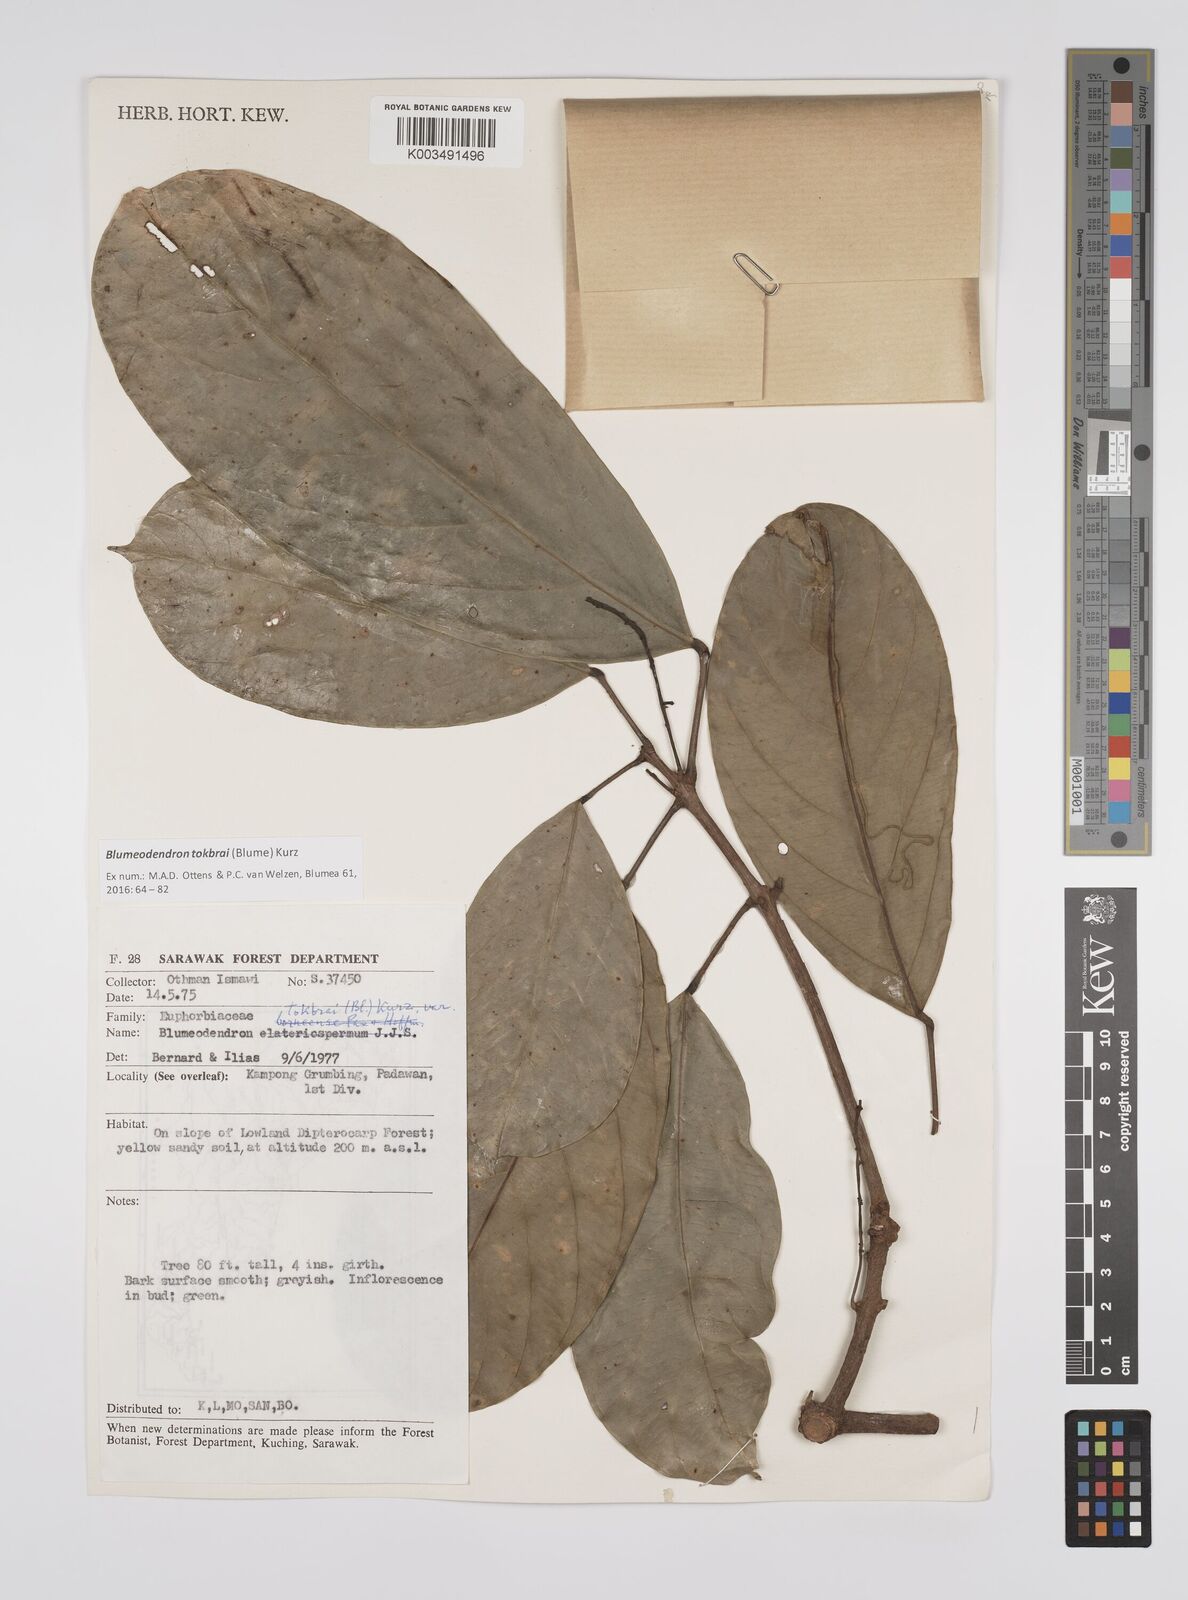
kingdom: Plantae
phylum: Tracheophyta
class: Magnoliopsida
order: Malpighiales
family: Euphorbiaceae
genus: Blumeodendron
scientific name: Blumeodendron tokbrai
